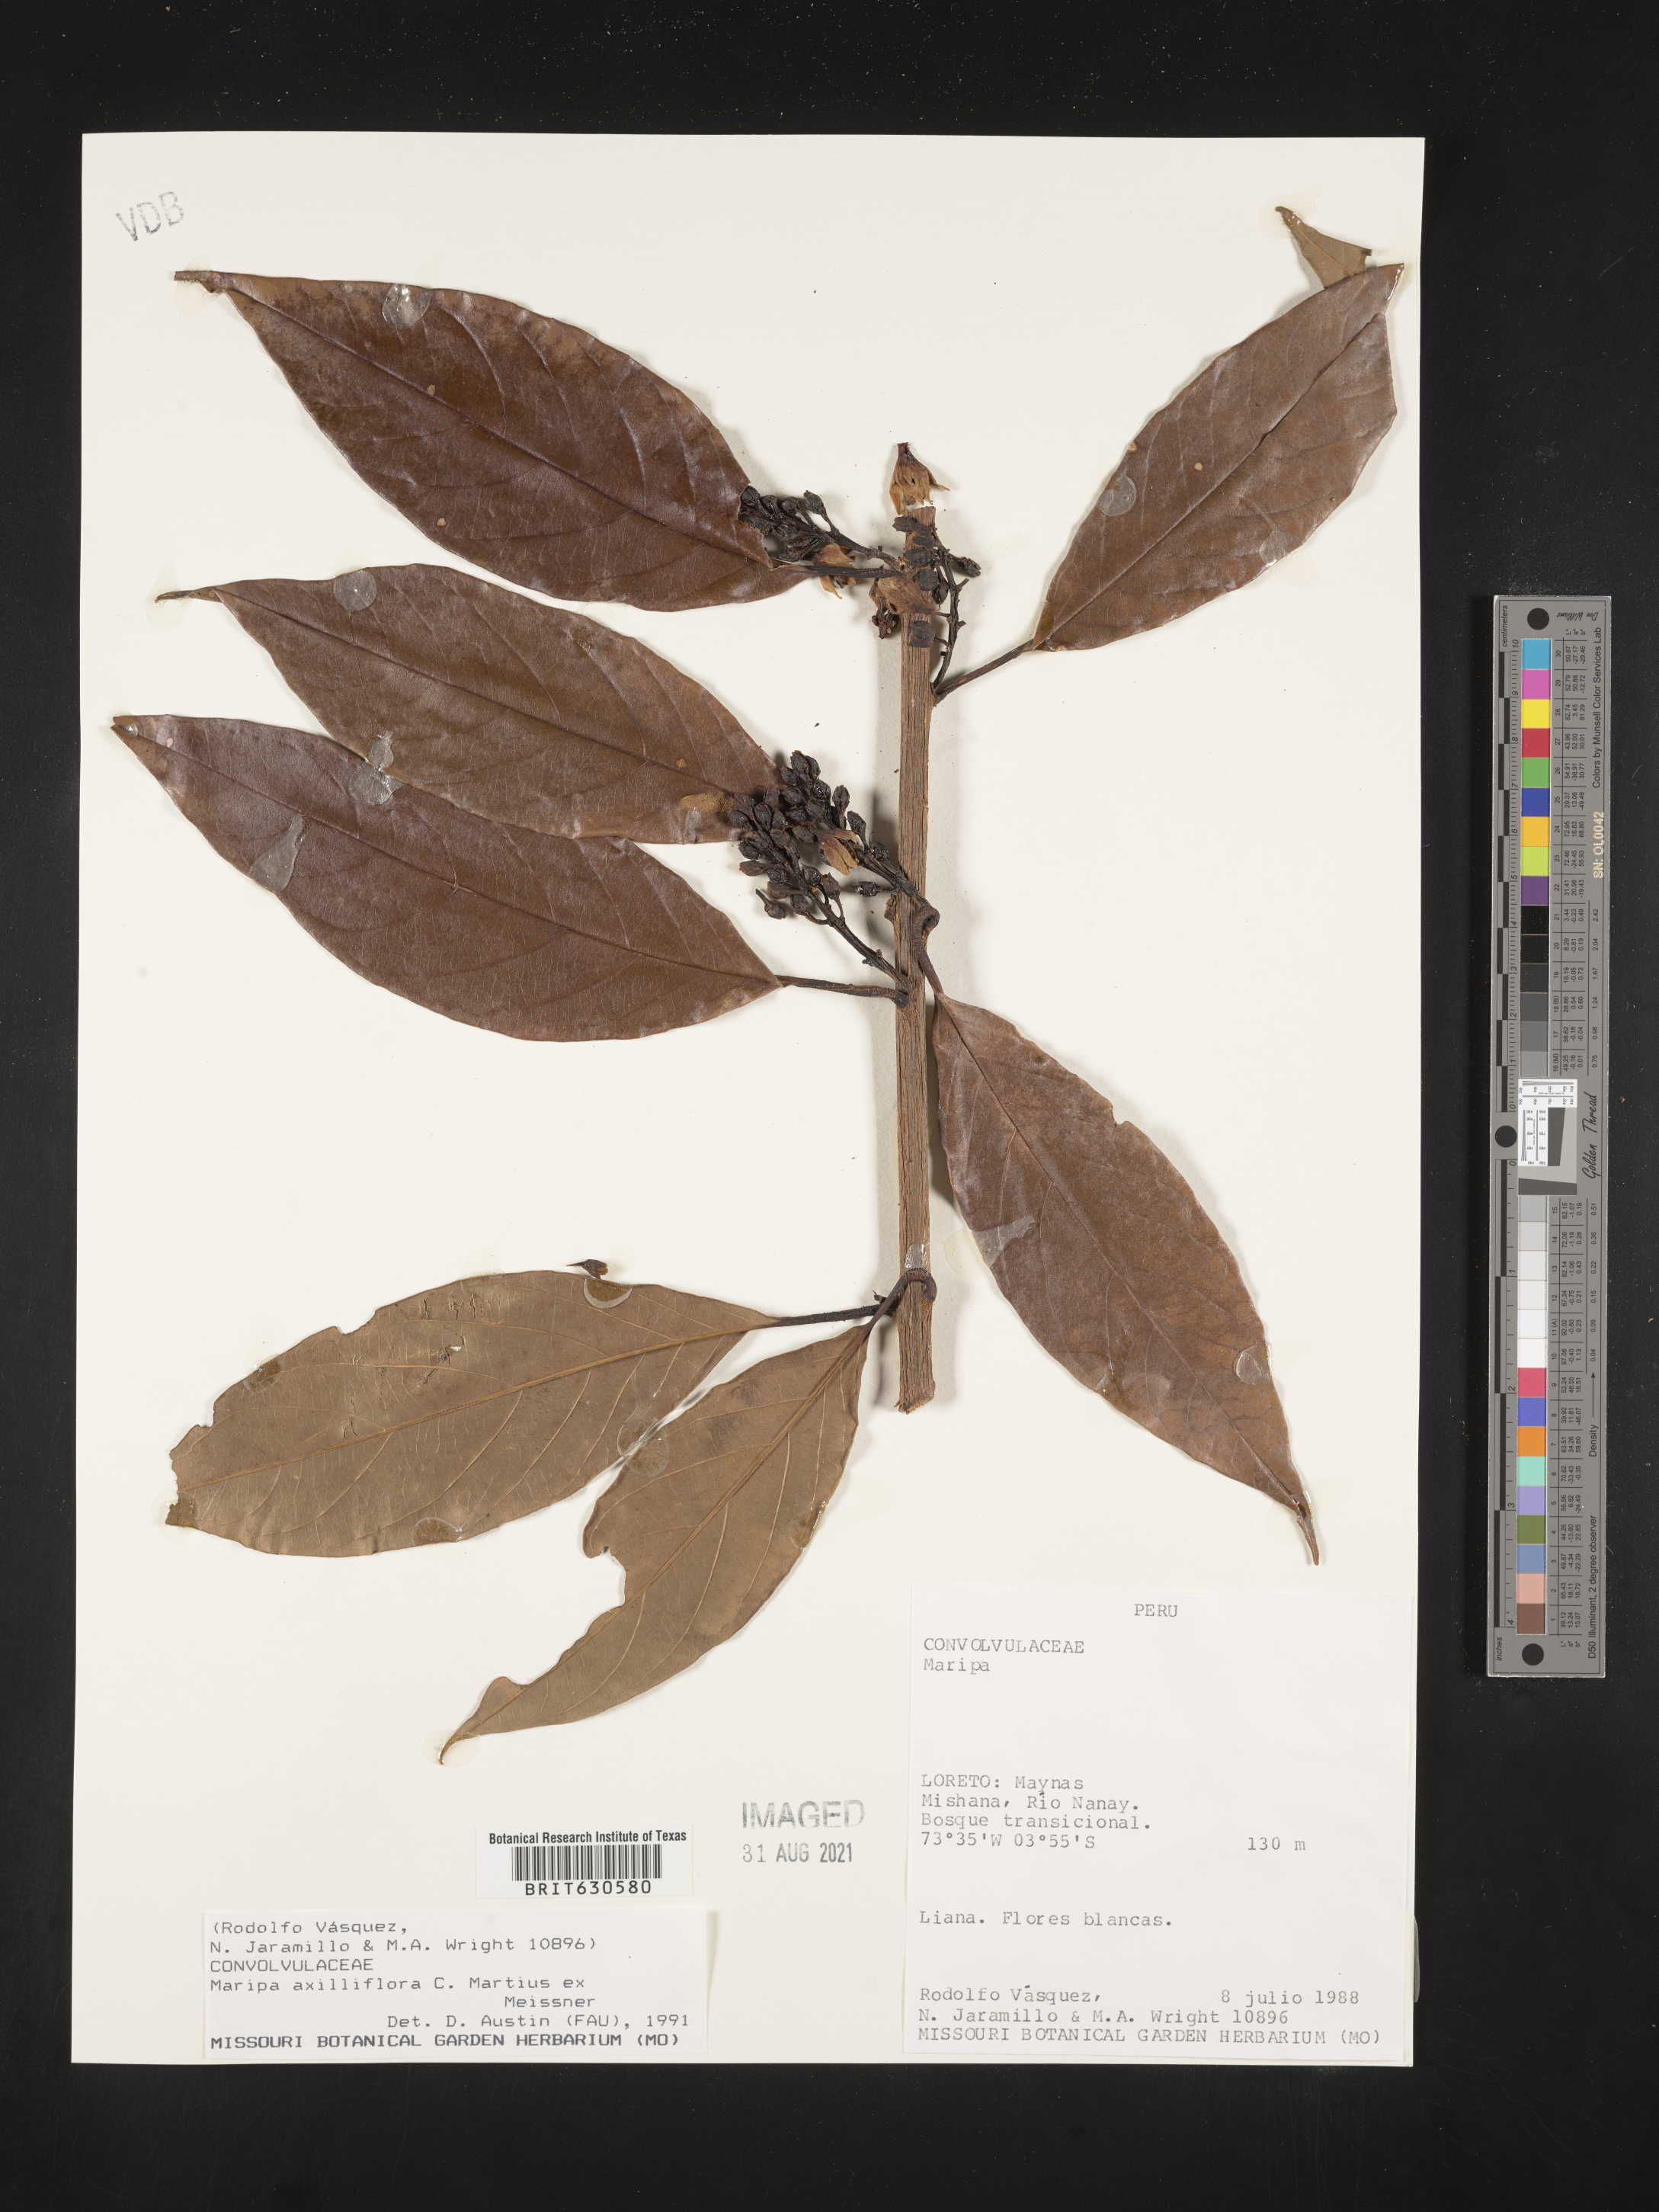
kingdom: Plantae
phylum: Tracheophyta
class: Magnoliopsida
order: Solanales
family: Convolvulaceae
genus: Maripa
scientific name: Maripa axilliflora
